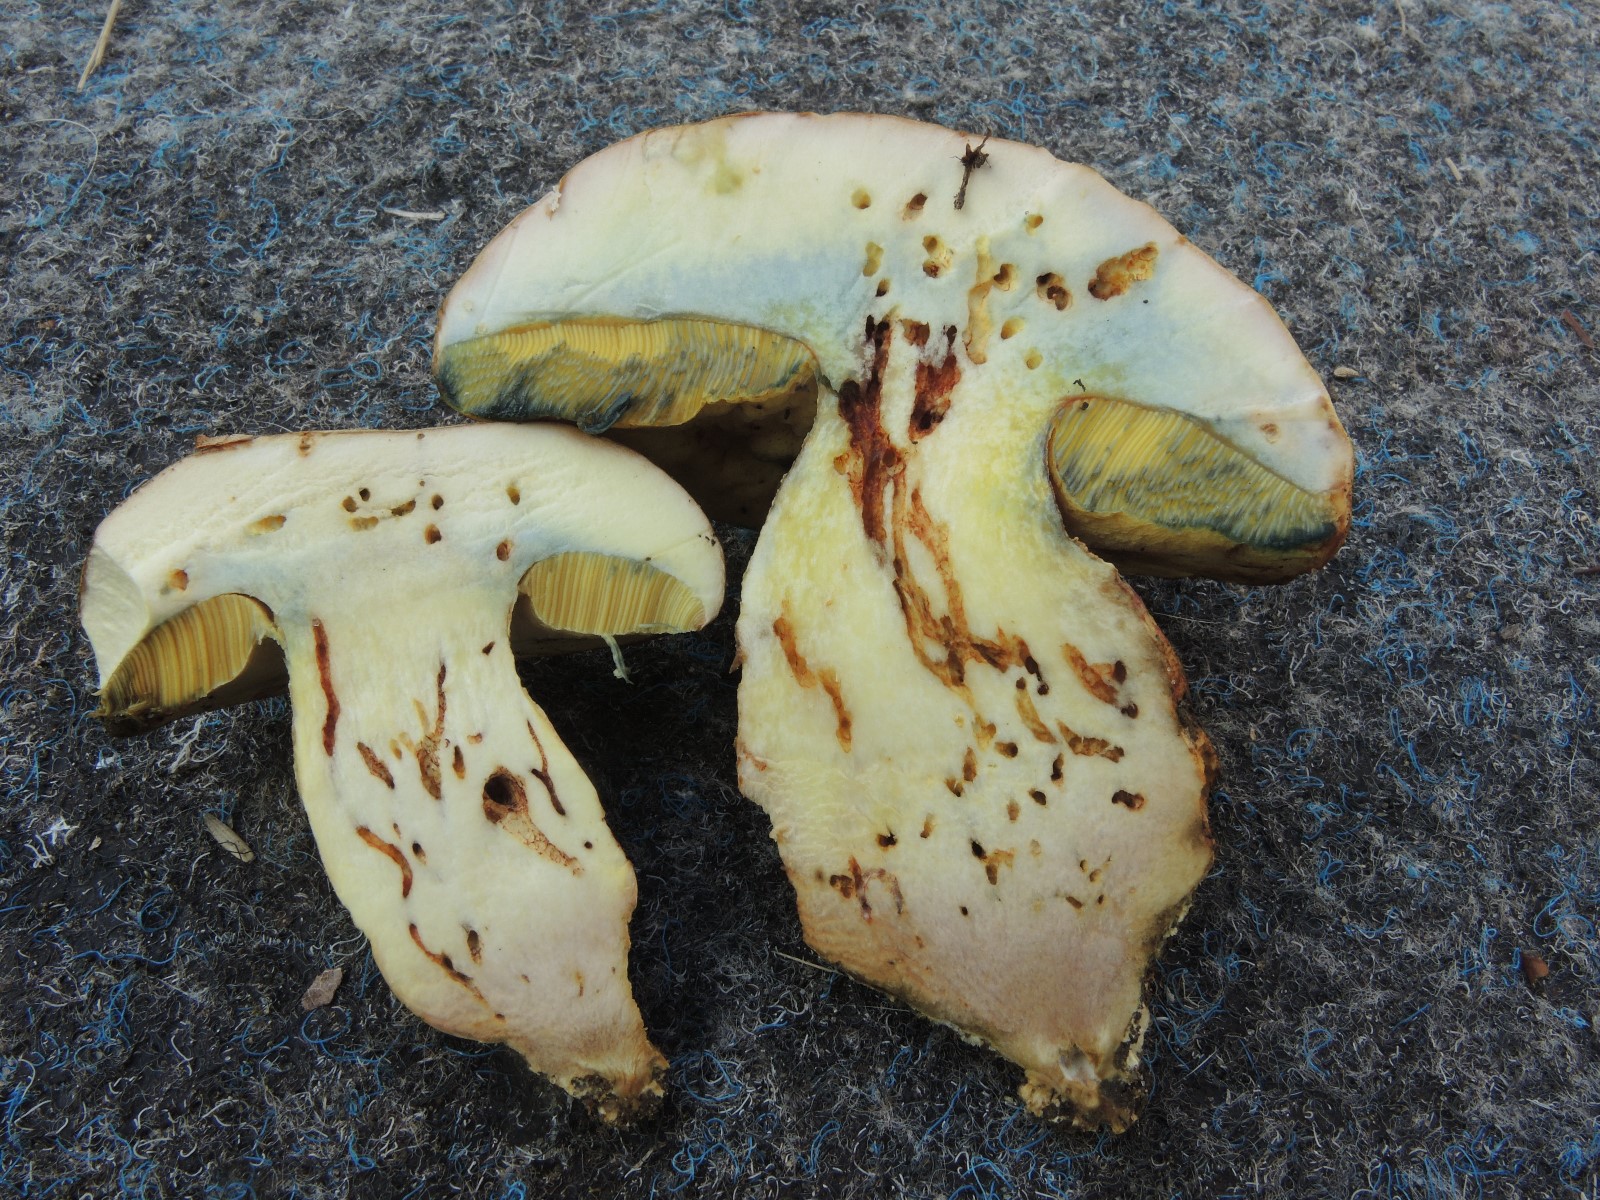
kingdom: Fungi
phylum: Basidiomycota
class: Agaricomycetes
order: Boletales
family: Boletaceae
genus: Butyriboletus
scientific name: Butyriboletus fechtneri
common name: sølvskinnende rørhat
